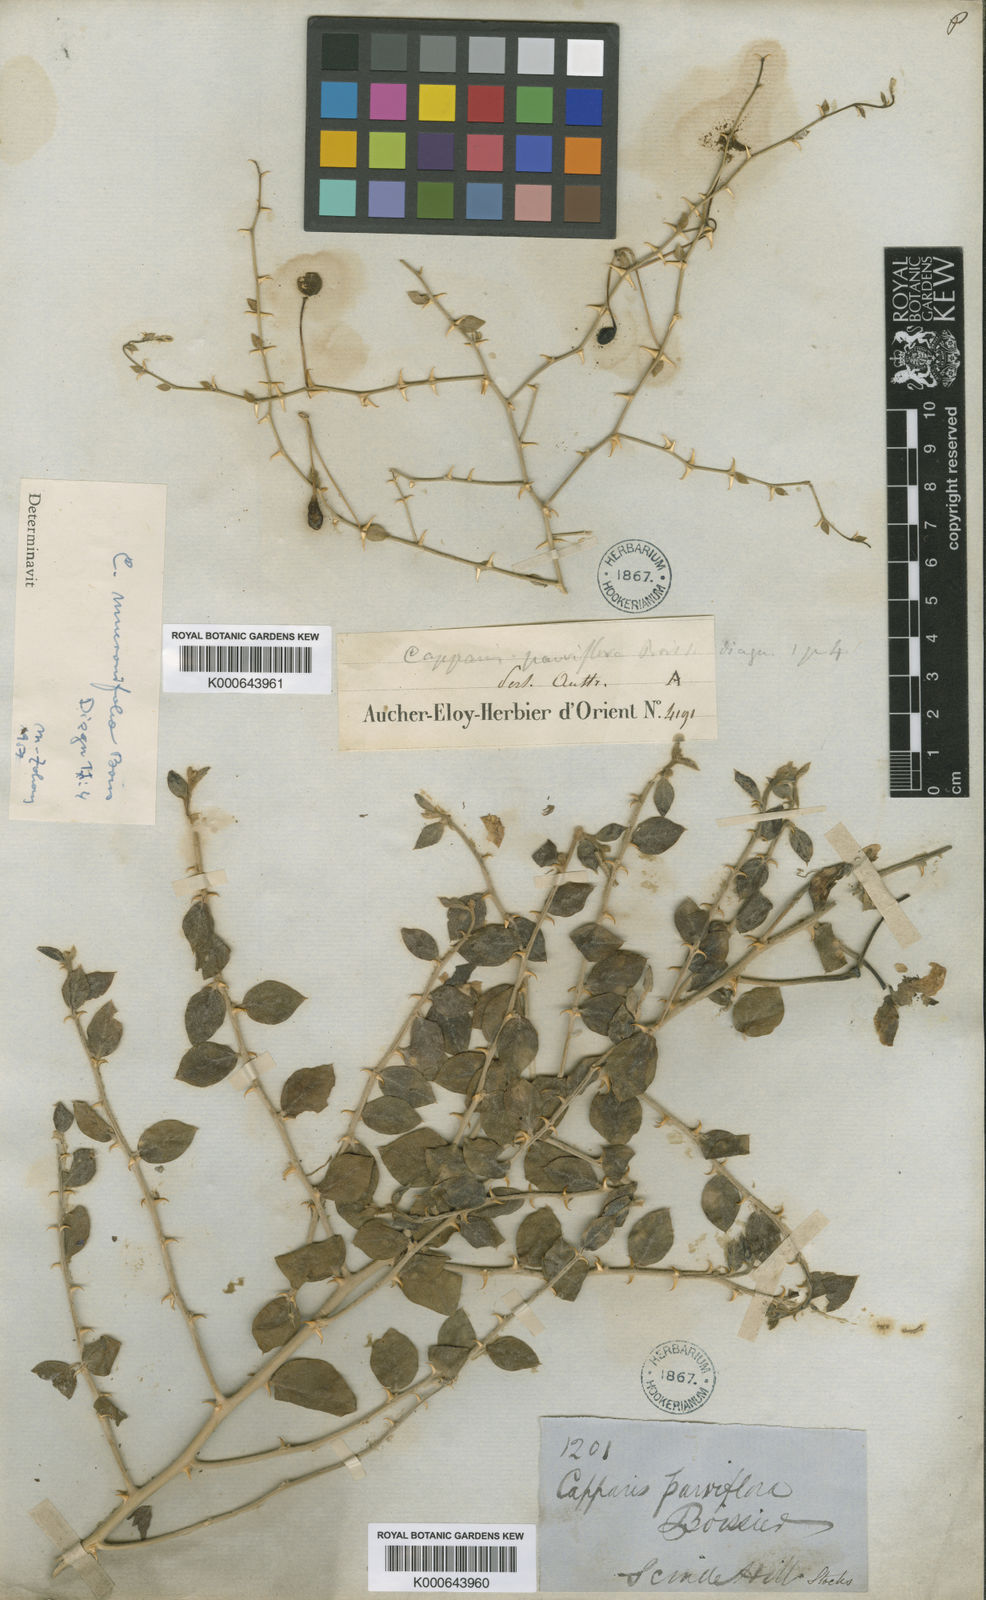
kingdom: Plantae
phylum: Tracheophyta
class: Magnoliopsida
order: Brassicales
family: Capparaceae
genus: Capparis
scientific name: Capparis spinosa
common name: Caper
